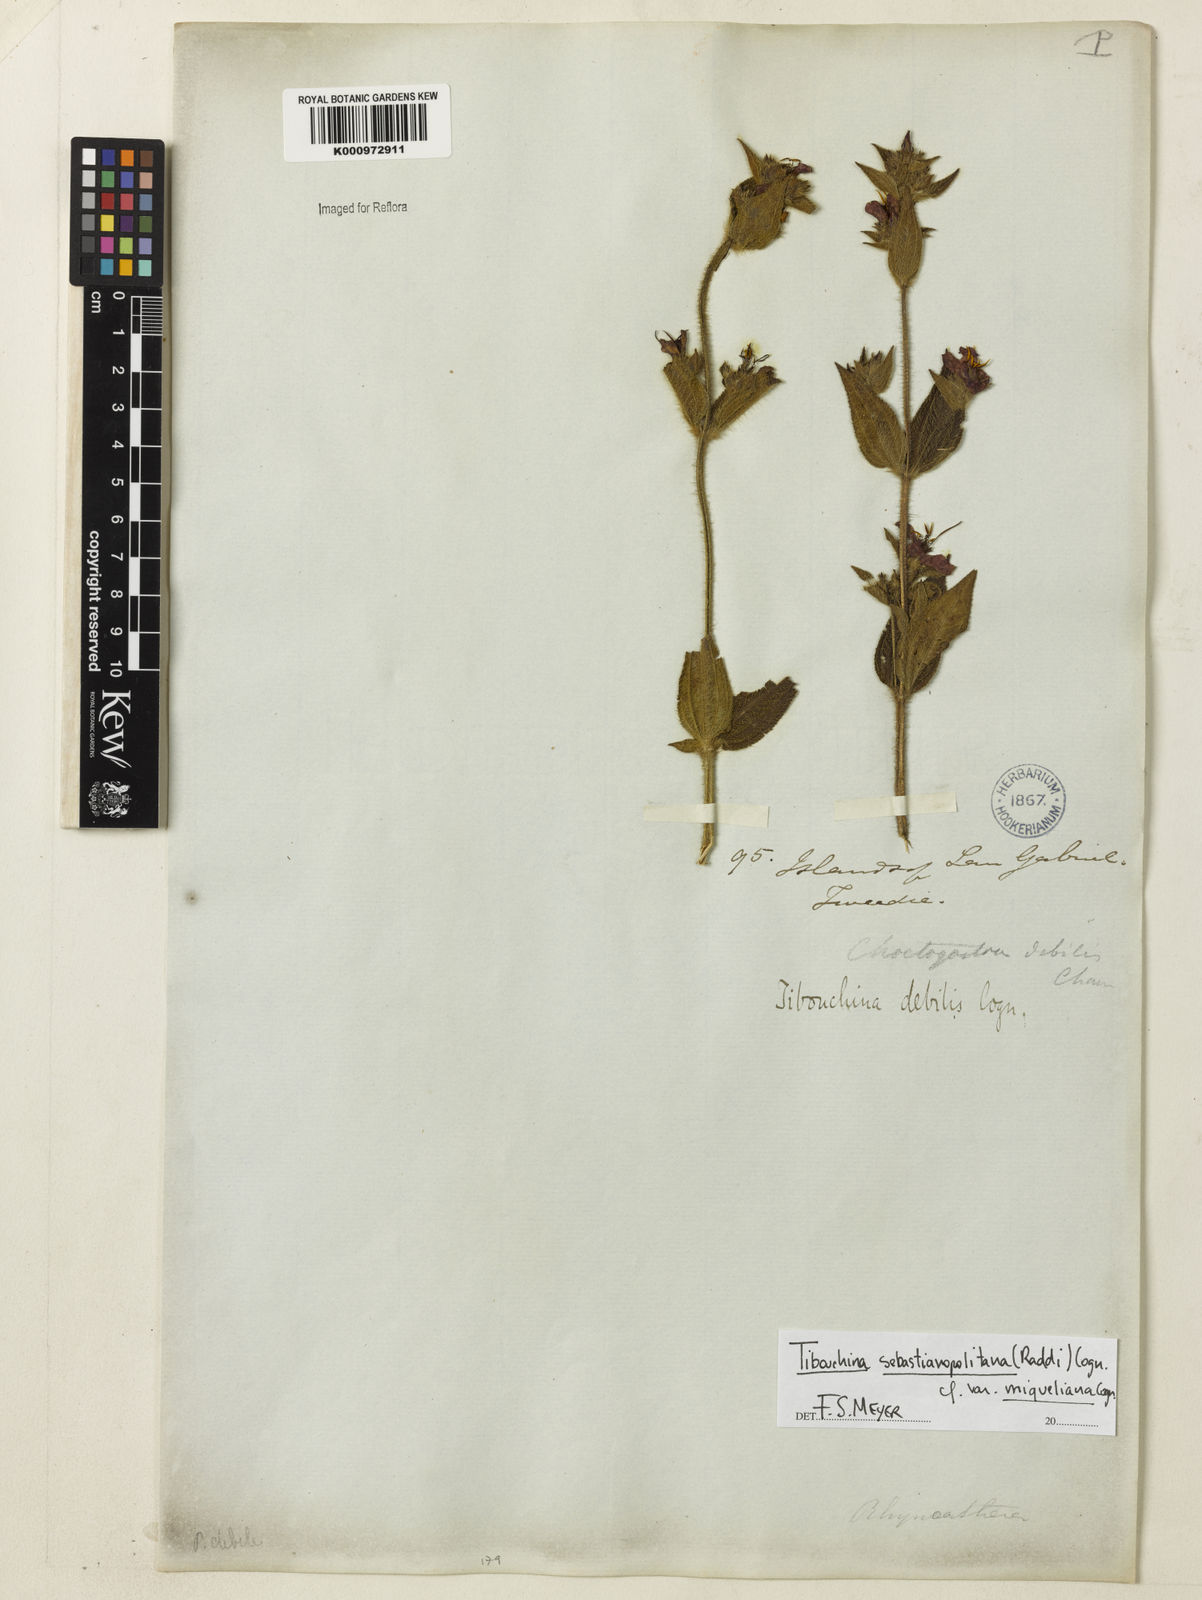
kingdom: Plantae
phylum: Tracheophyta
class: Magnoliopsida
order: Myrtales
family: Melastomataceae
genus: Chaetogastra
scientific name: Chaetogastra sebastianopolitana
